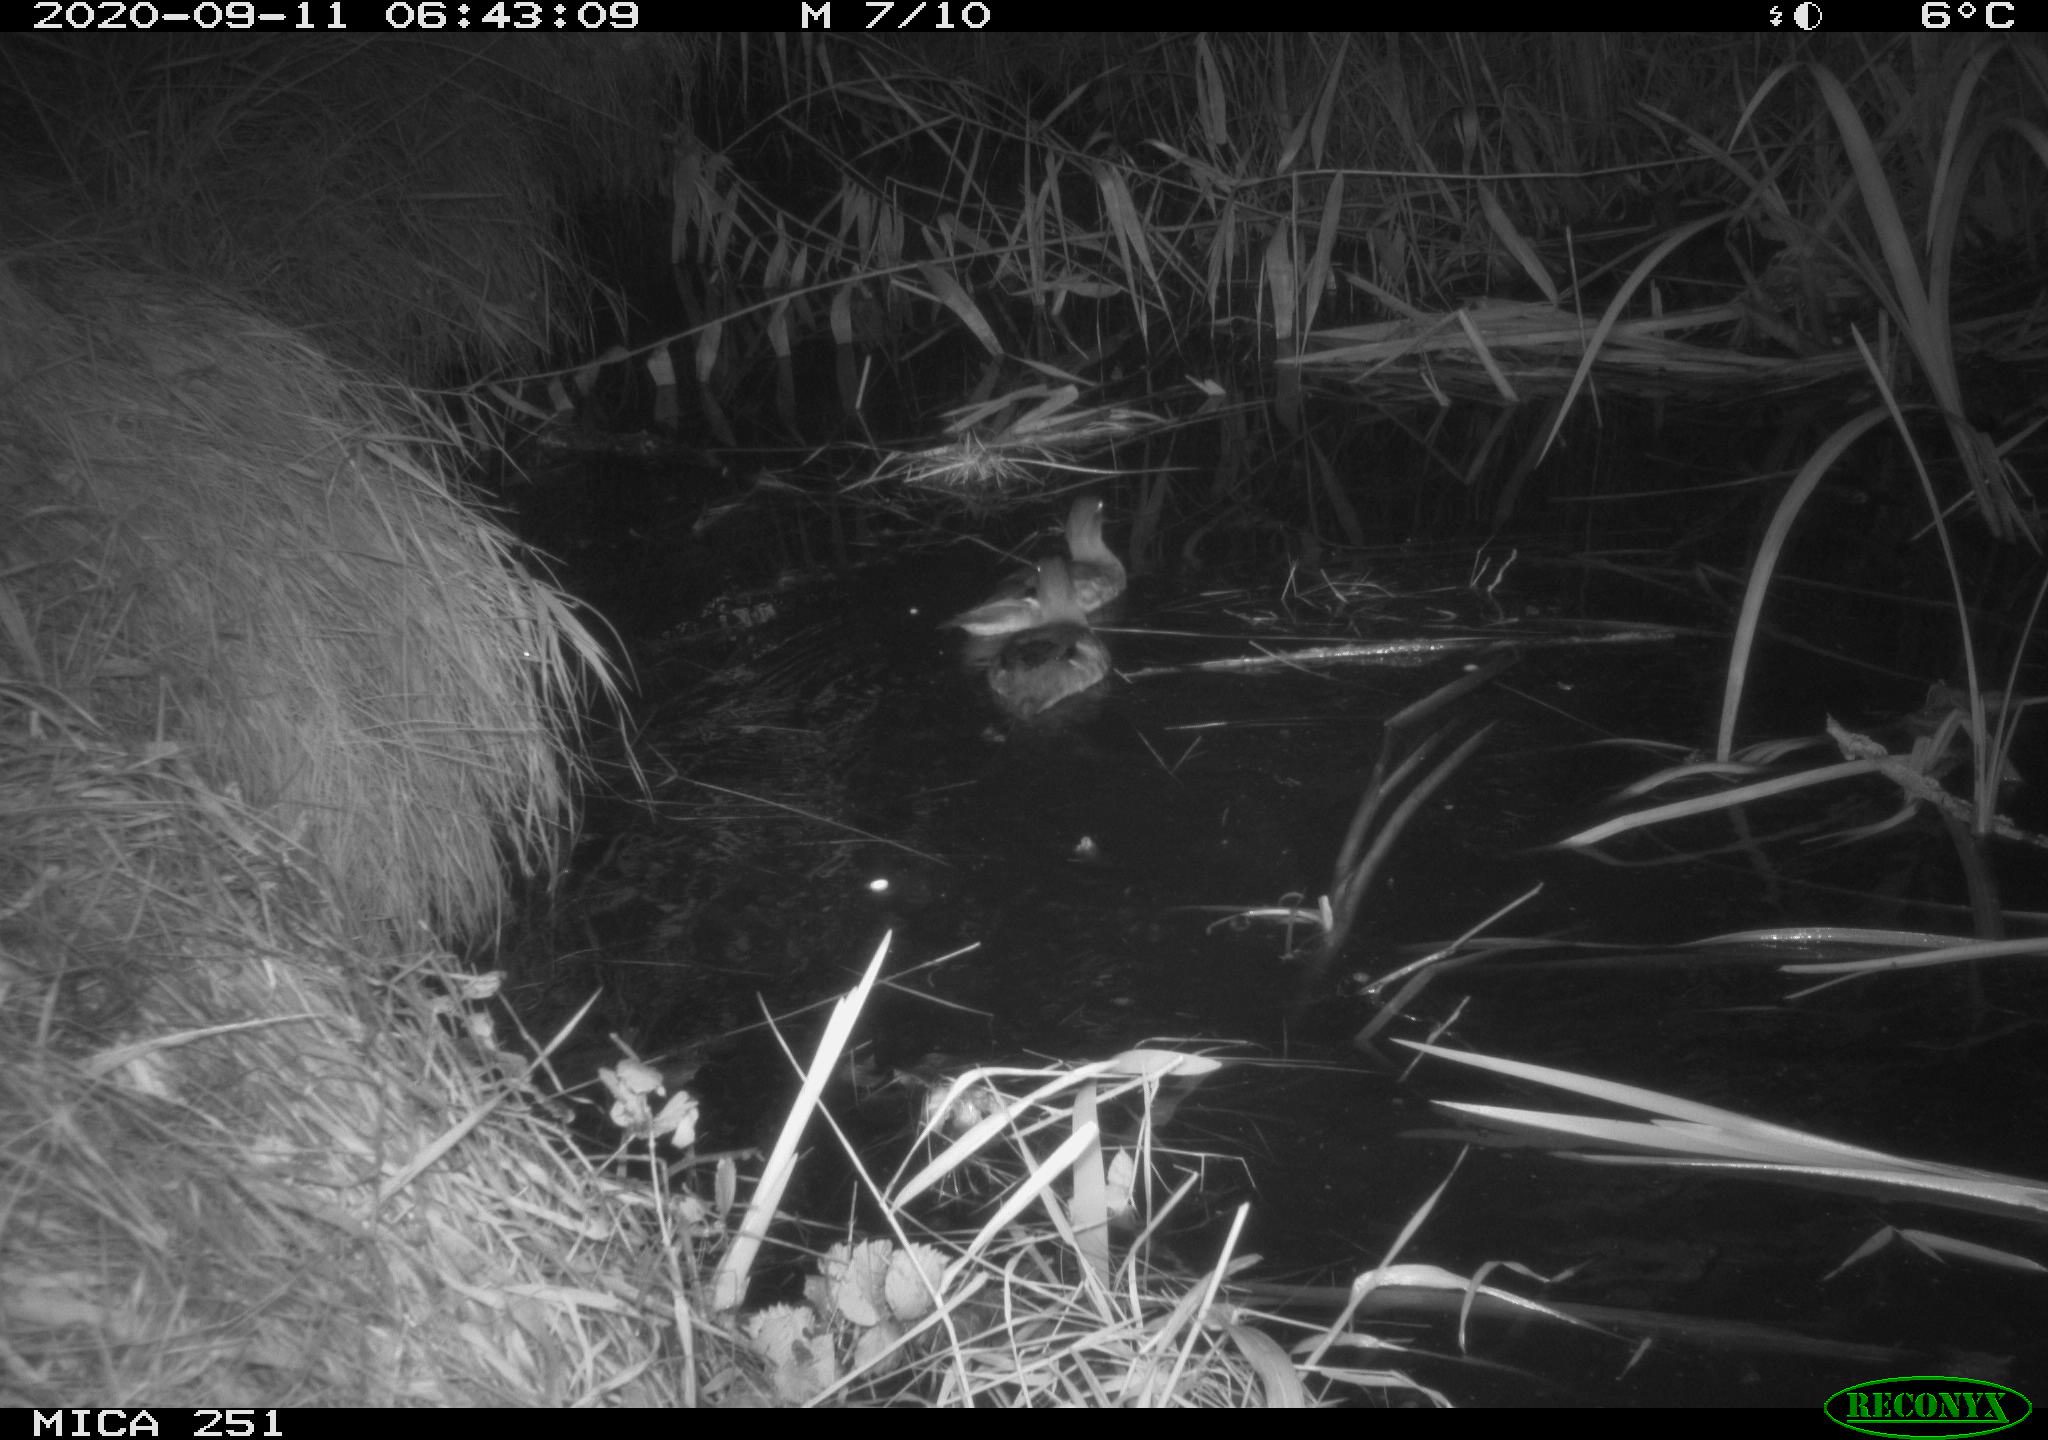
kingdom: Animalia
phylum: Chordata
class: Aves
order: Anseriformes
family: Anatidae
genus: Aix
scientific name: Aix galericulata
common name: Mandarin duck
